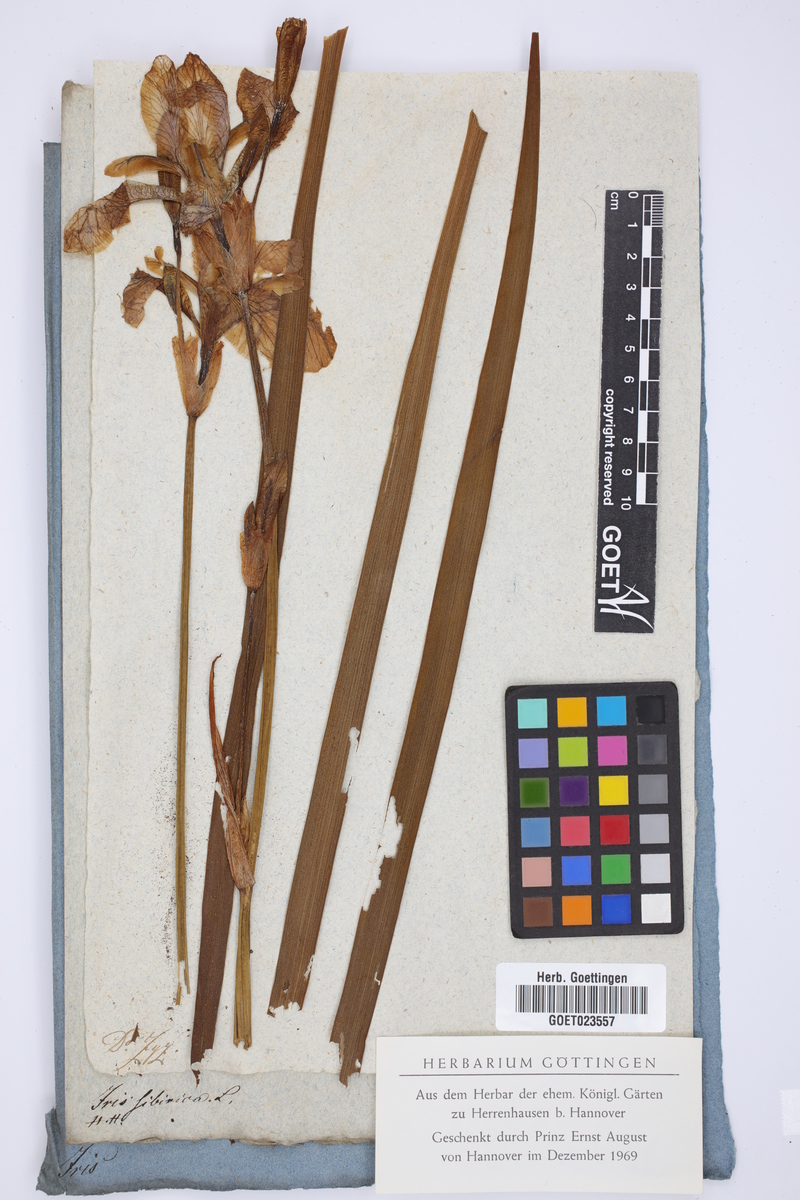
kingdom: Plantae
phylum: Tracheophyta
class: Liliopsida
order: Asparagales
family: Iridaceae
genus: Iris
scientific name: Iris sibirica
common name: Siberian iris
